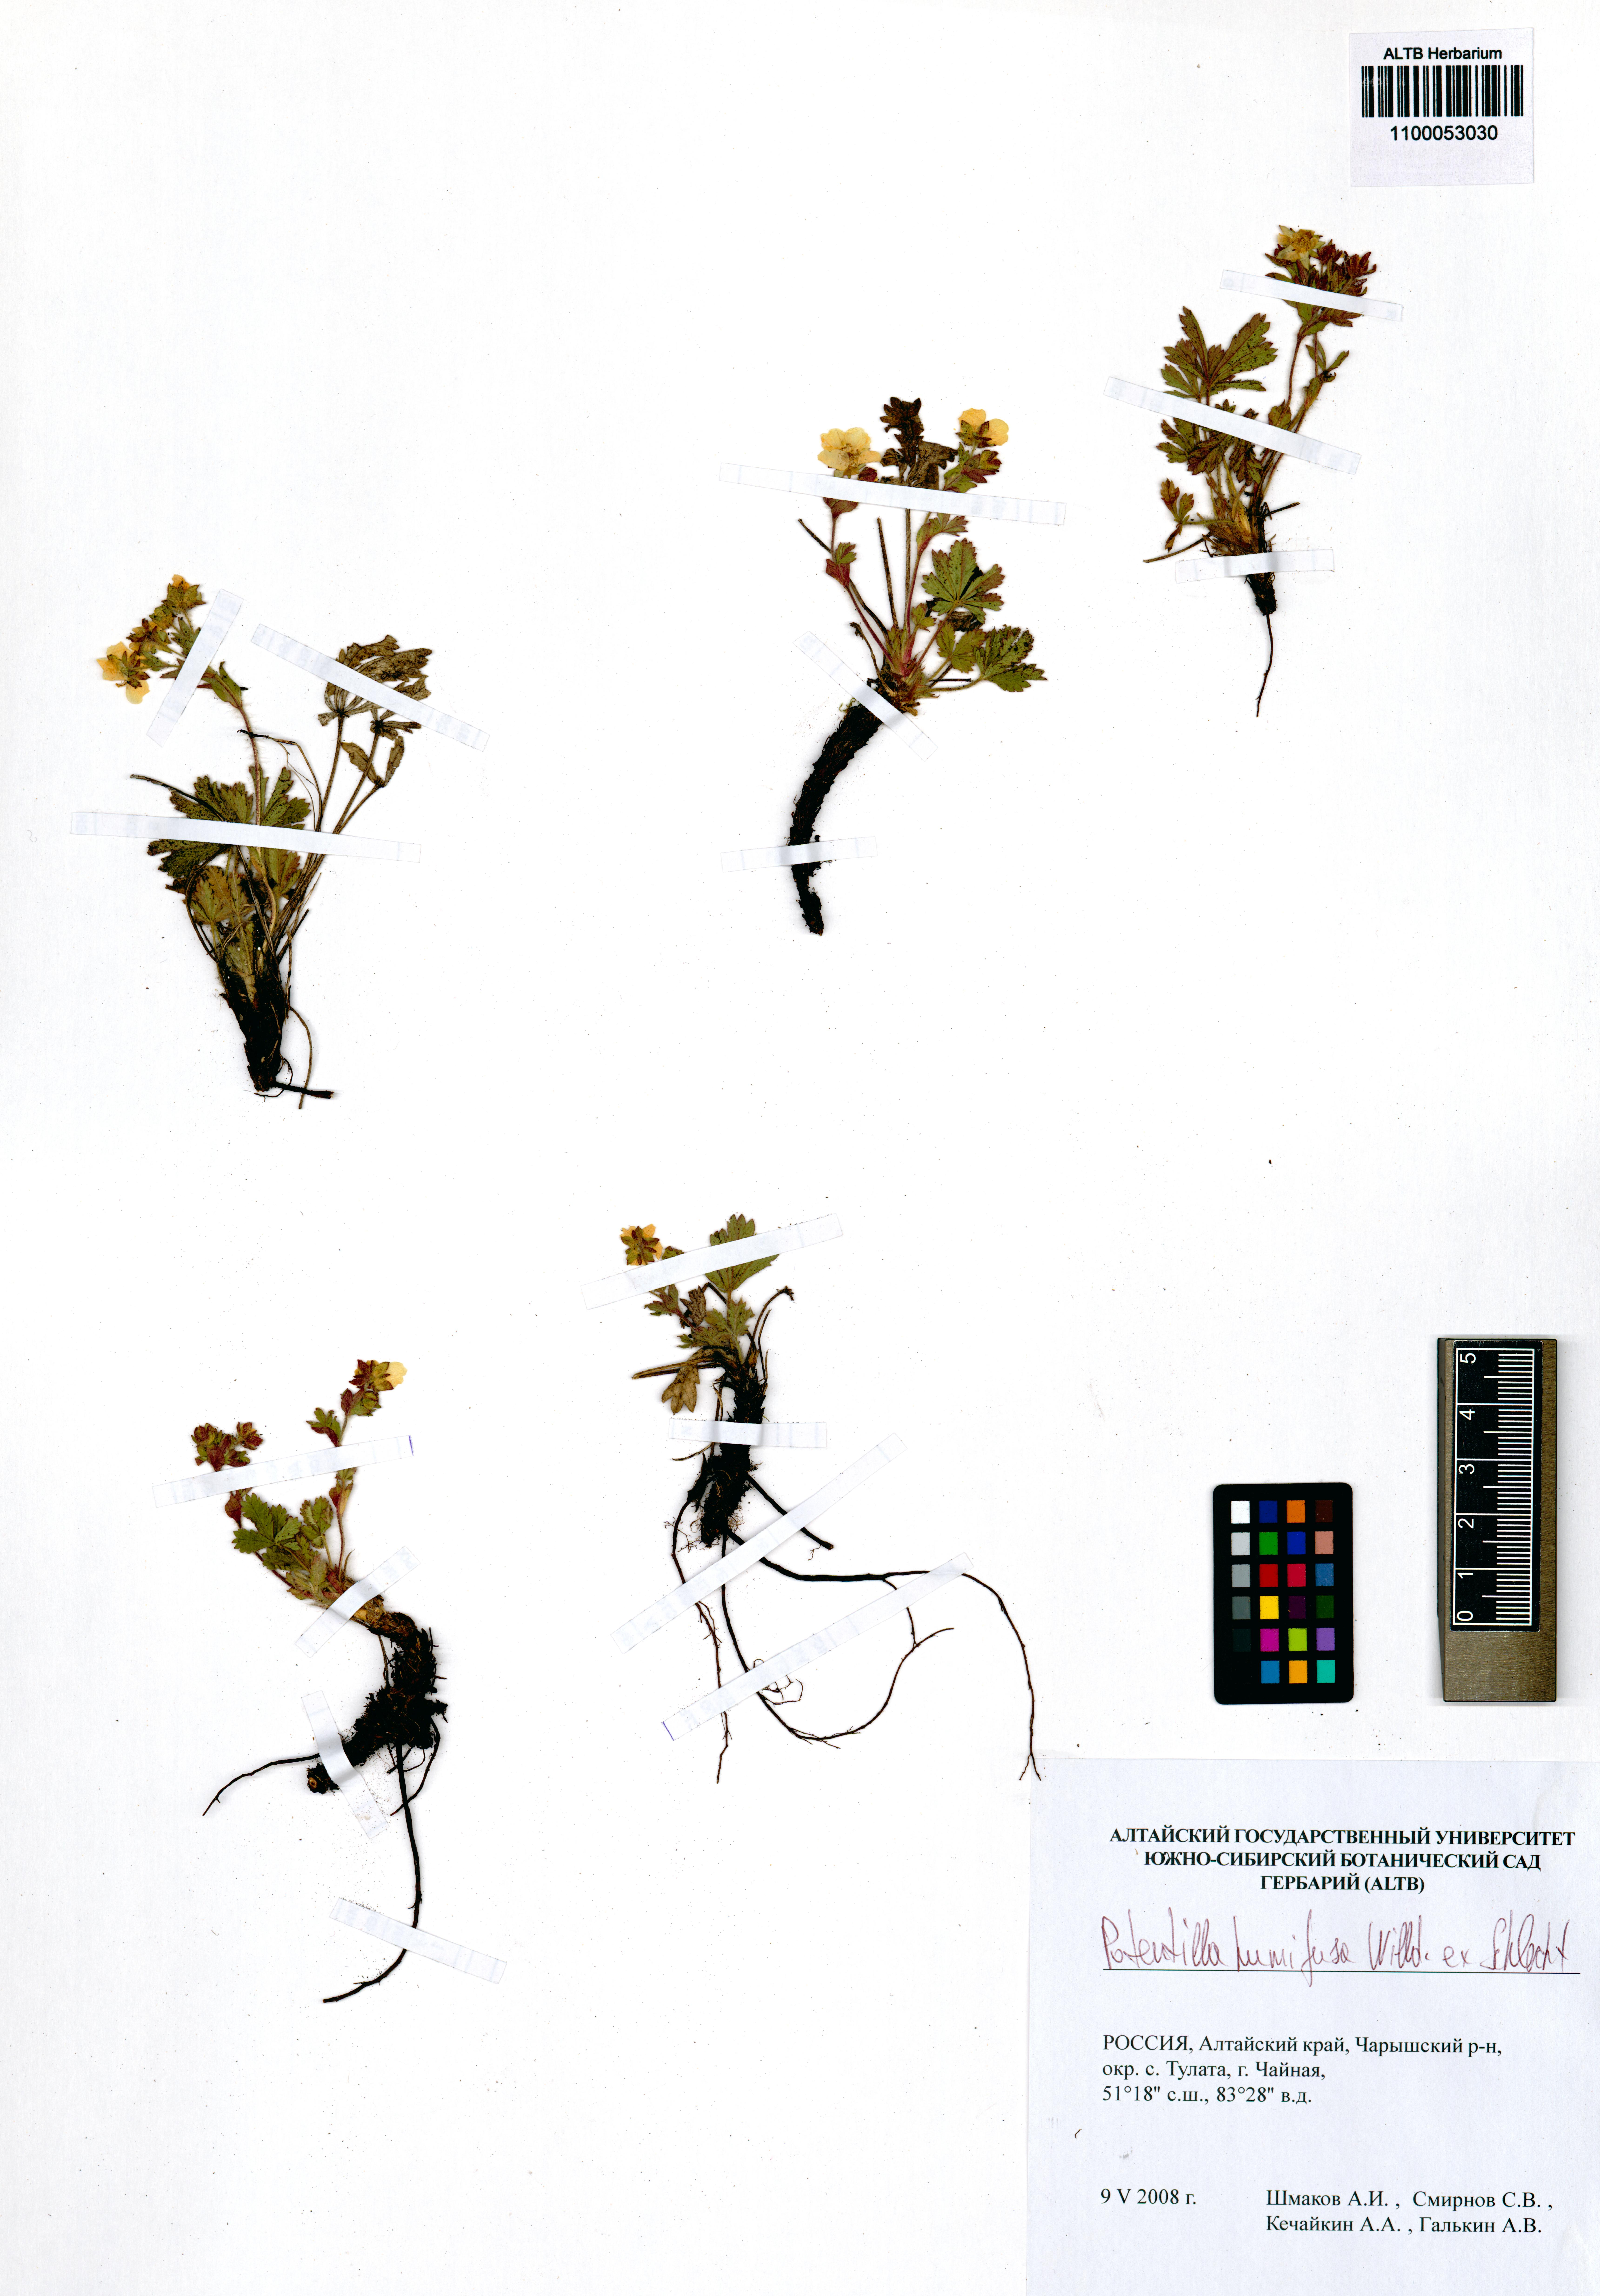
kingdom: Plantae
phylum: Tracheophyta
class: Magnoliopsida
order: Rosales
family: Rosaceae
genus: Potentilla
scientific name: Potentilla humifusa
